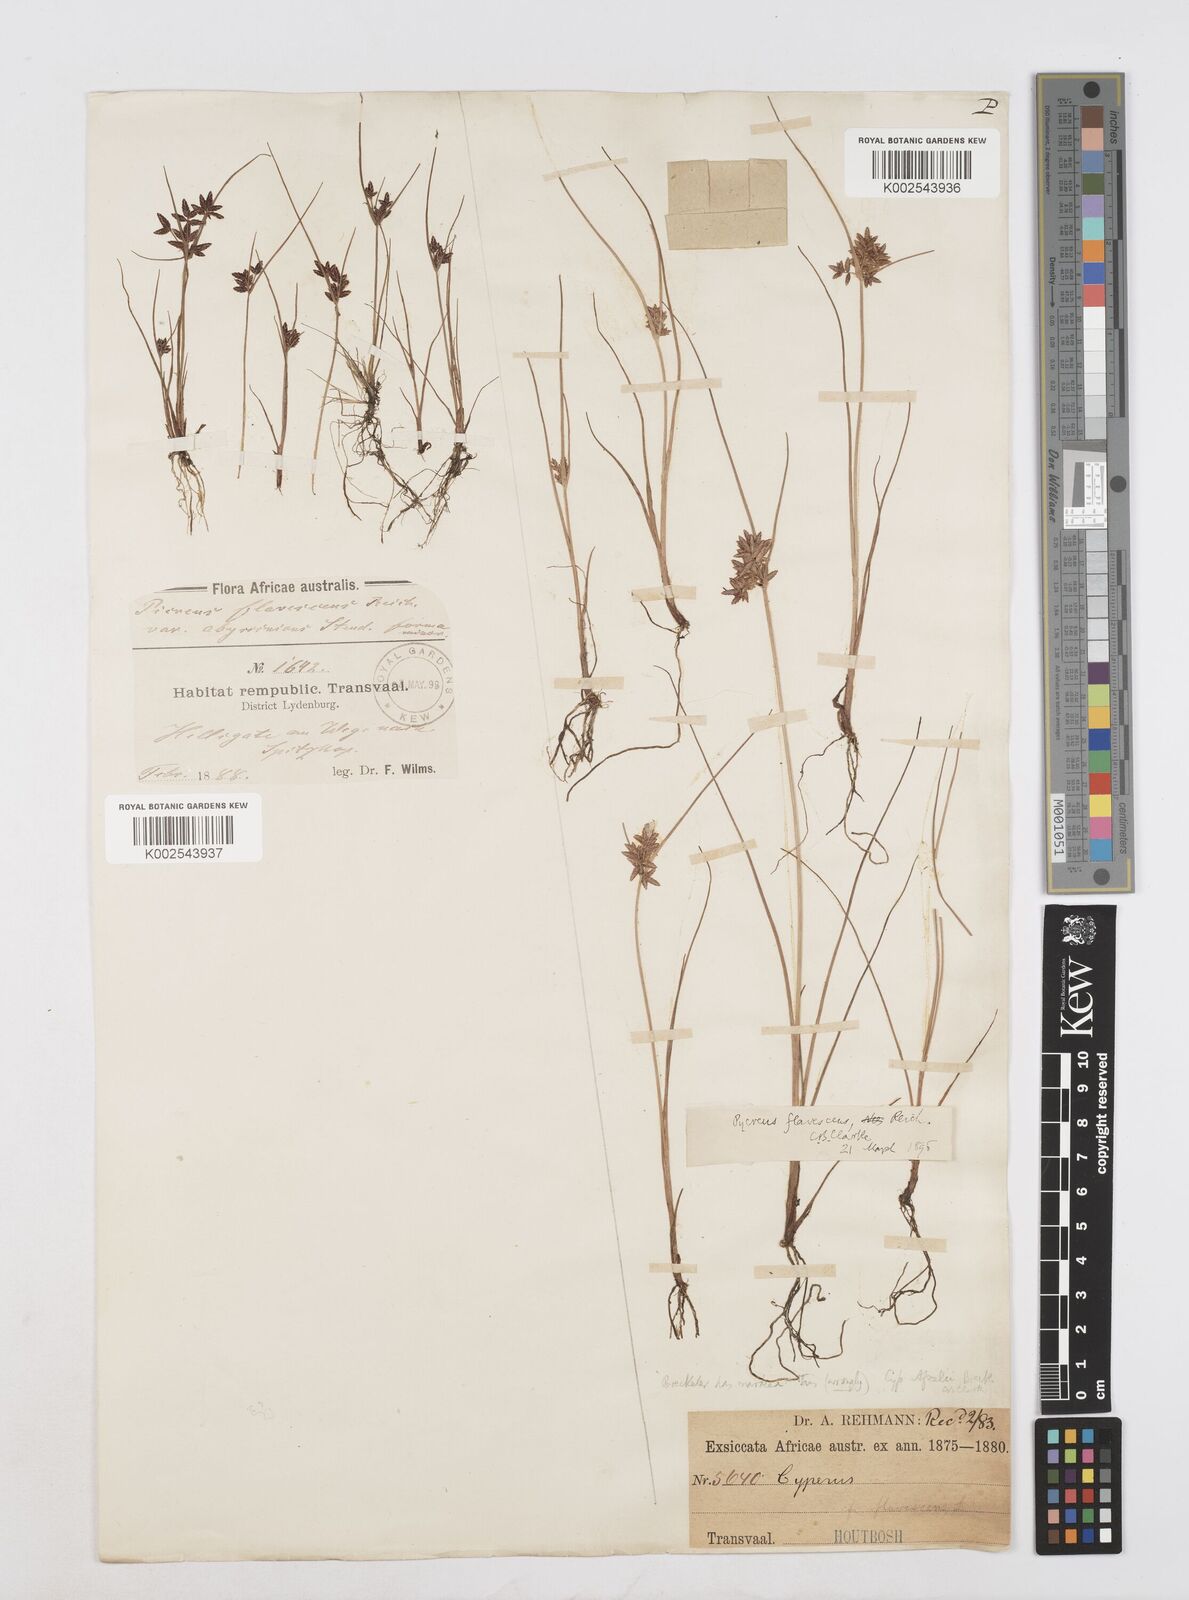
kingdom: Plantae
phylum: Tracheophyta
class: Liliopsida
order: Poales
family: Cyperaceae
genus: Cyperus
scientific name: Cyperus flavescens
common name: Yellow galingale
